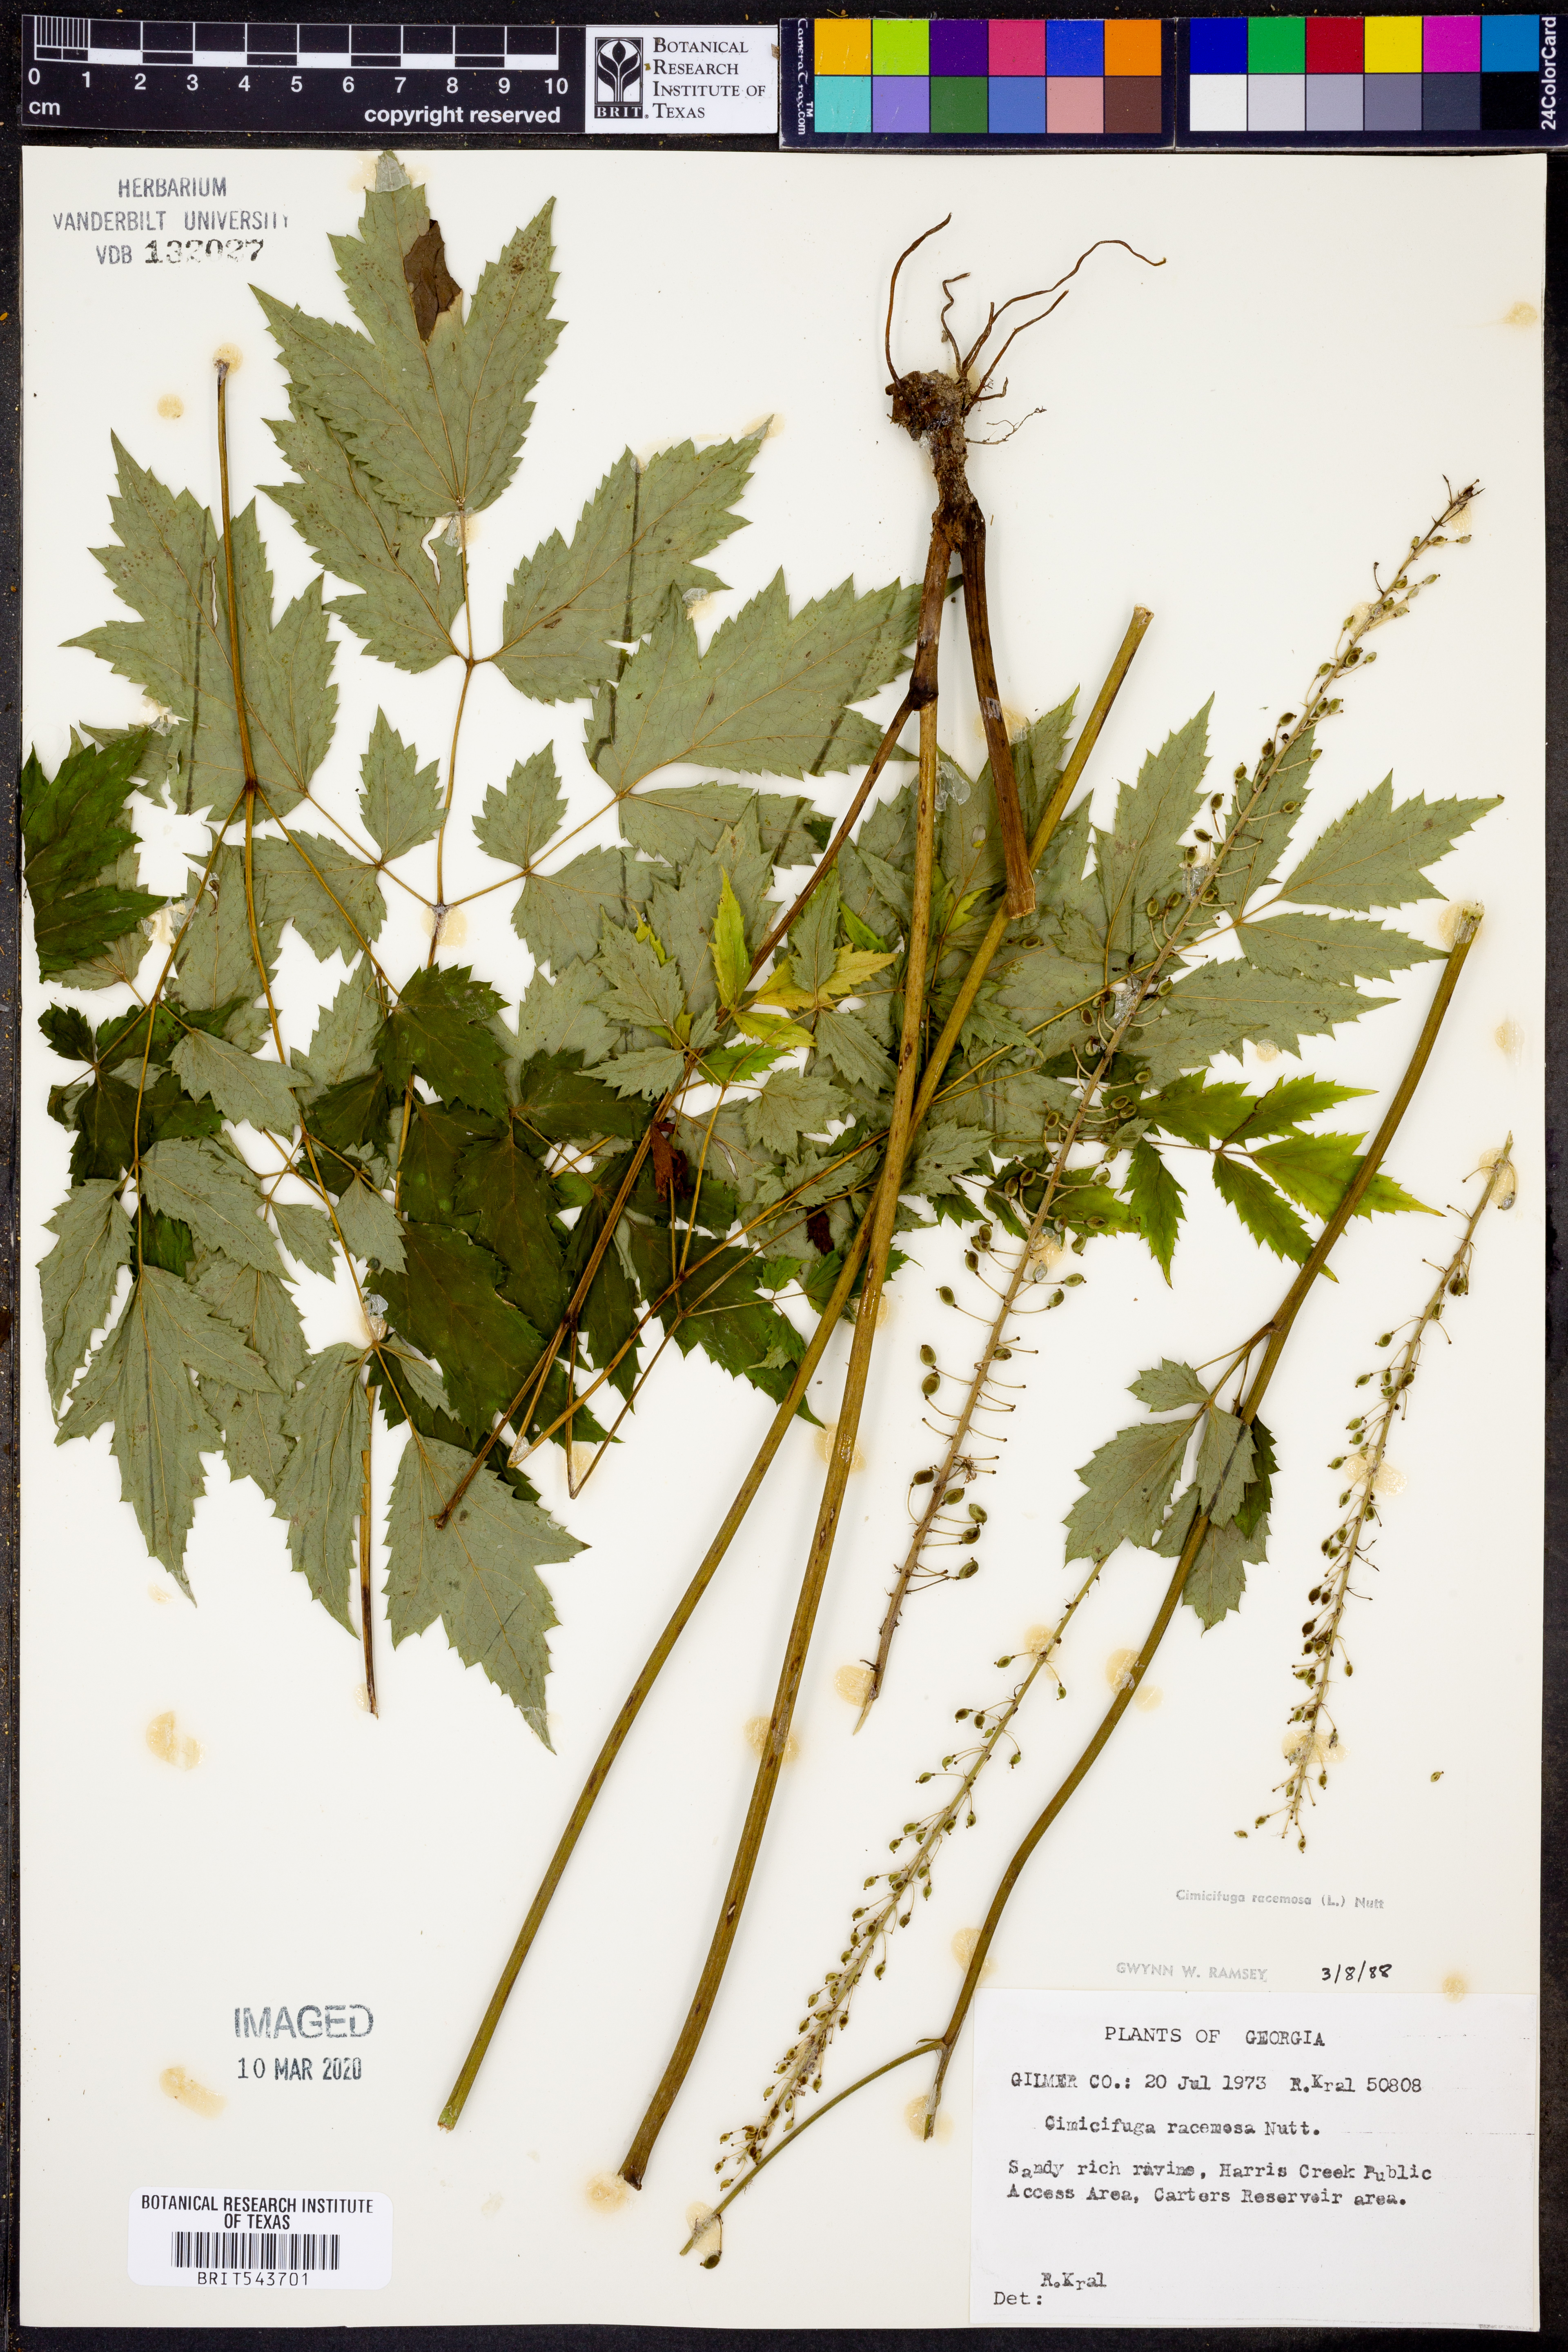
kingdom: Plantae
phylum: Tracheophyta
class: Magnoliopsida
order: Ranunculales
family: Ranunculaceae
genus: Actaea
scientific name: Actaea racemosa
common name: Black cohosh
